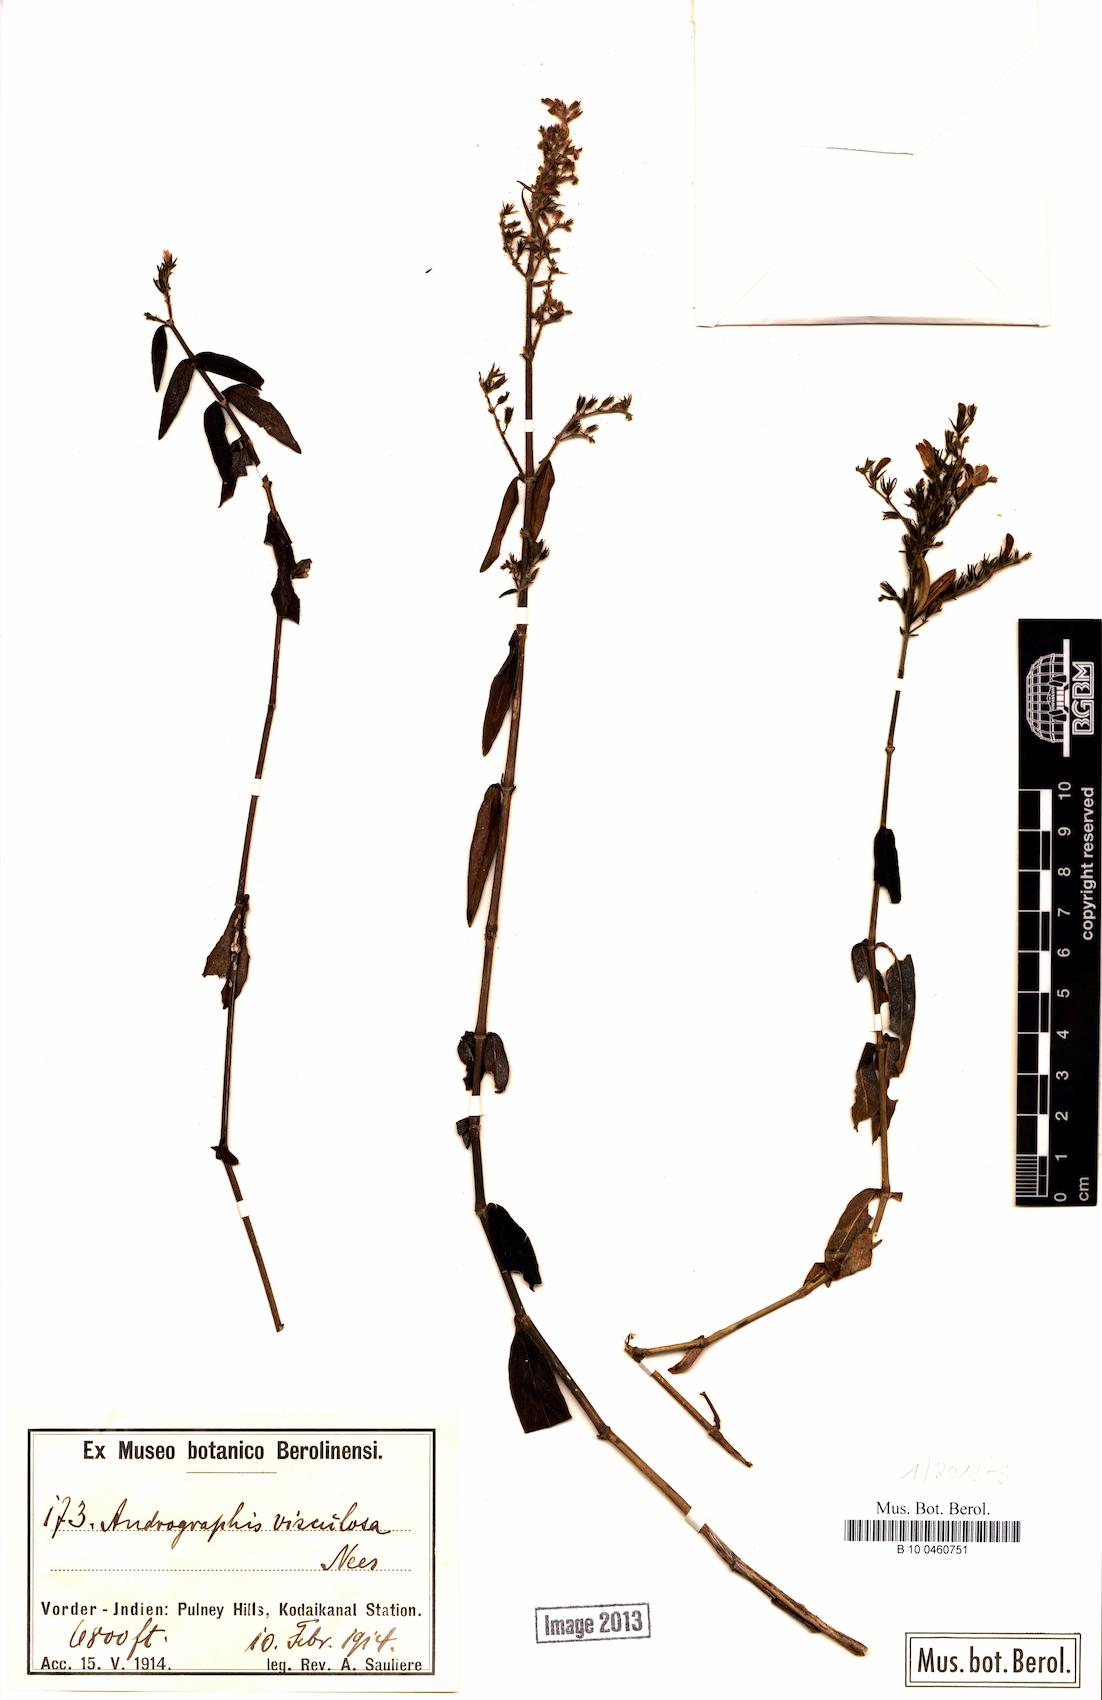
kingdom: Plantae
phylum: Tracheophyta
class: Magnoliopsida
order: Lamiales
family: Acanthaceae
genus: Andrographis
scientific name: Andrographis affinis
